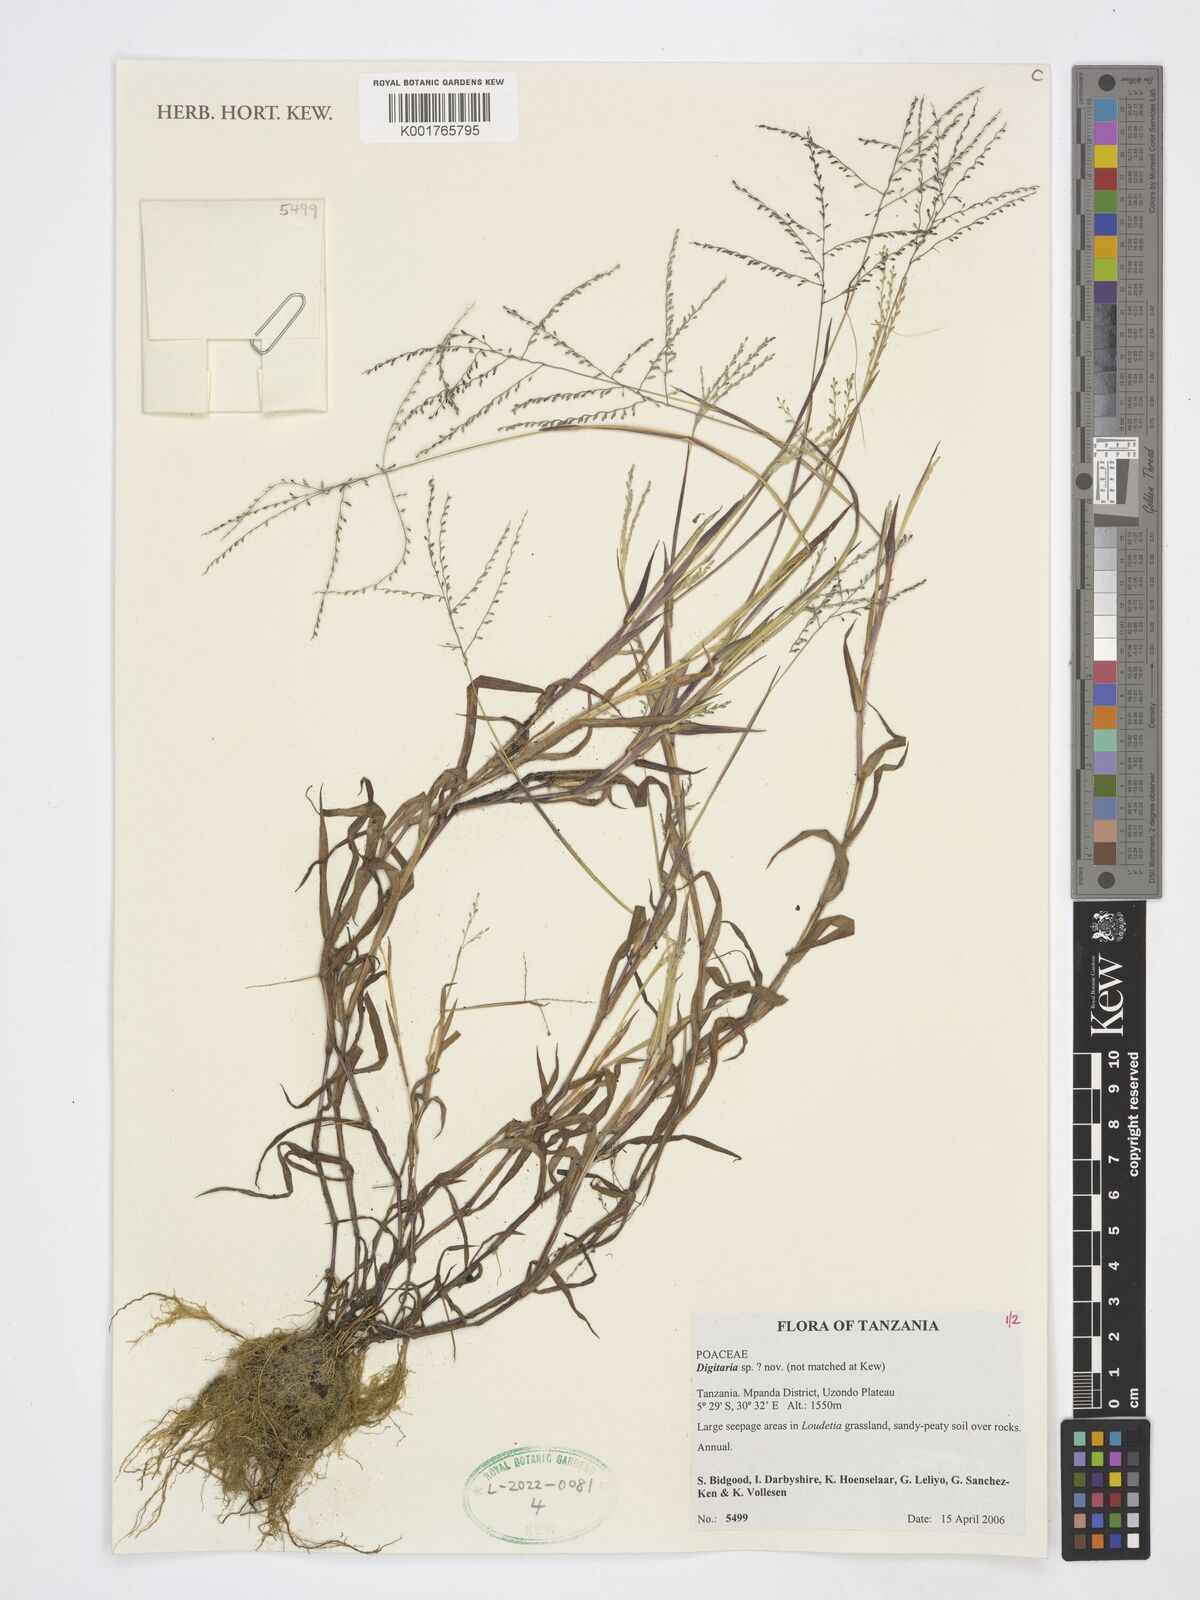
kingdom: Plantae
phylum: Tracheophyta
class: Liliopsida
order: Poales
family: Poaceae
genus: Digitaria
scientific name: Digitaria
